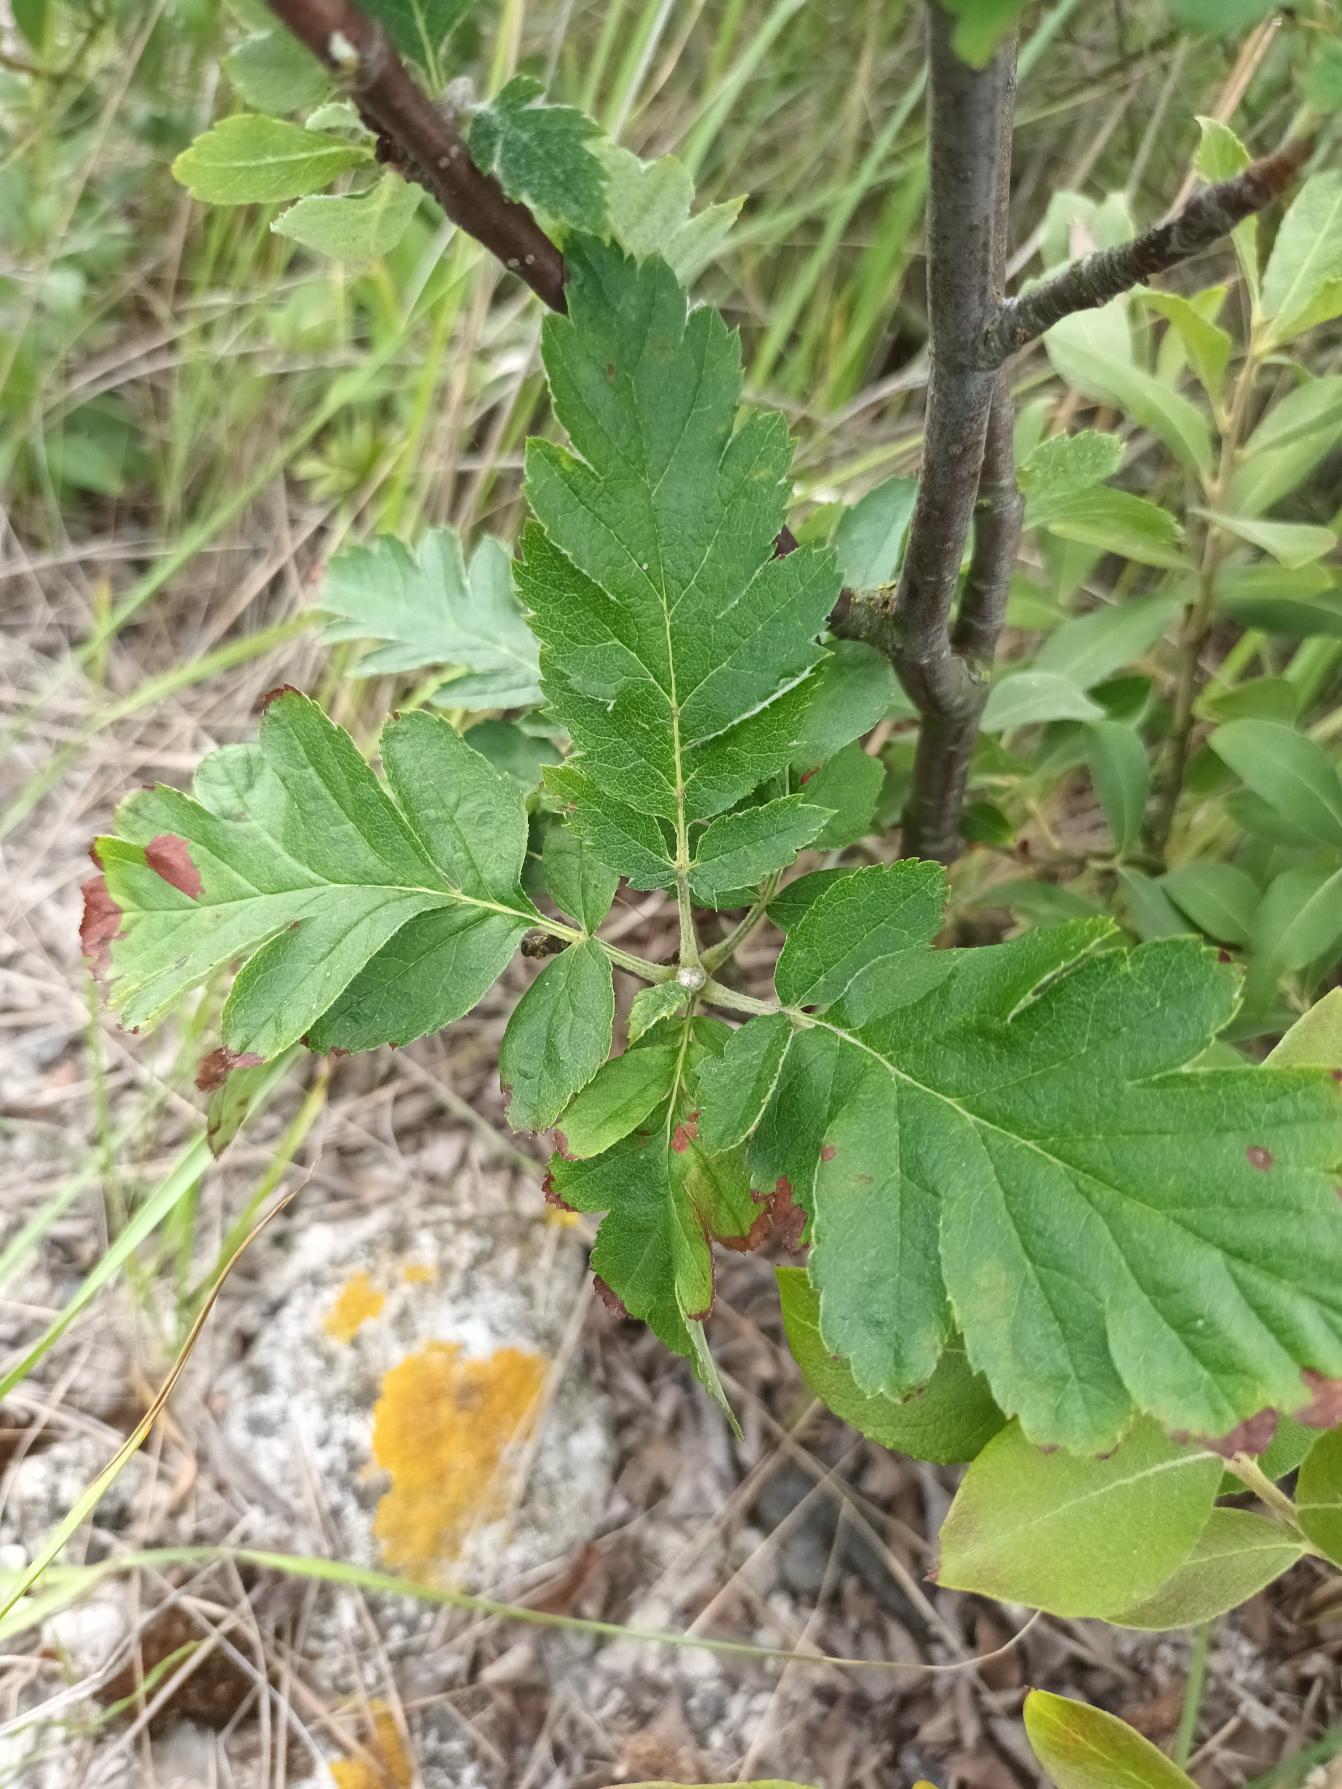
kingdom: Plantae
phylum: Tracheophyta
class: Magnoliopsida
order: Rosales
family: Rosaceae
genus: Hedlundia
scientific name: Hedlundia hybrida
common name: Finsk røn
